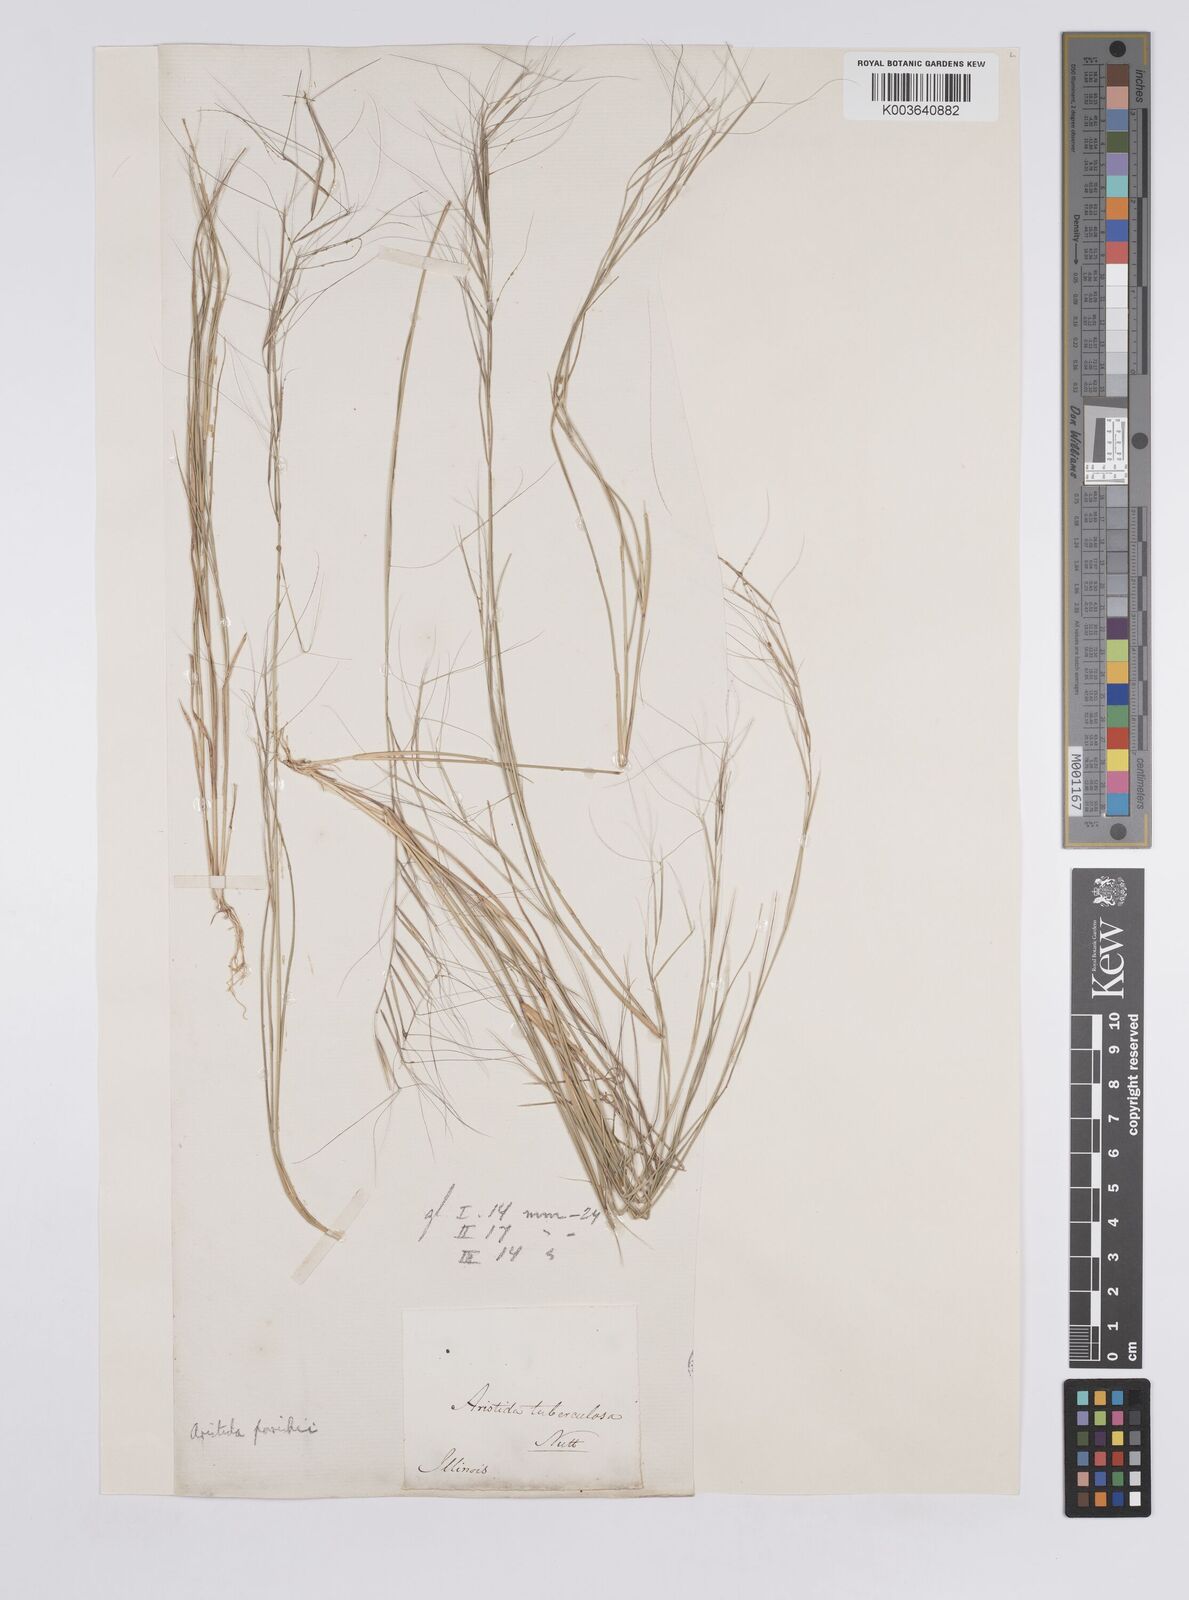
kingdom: Plantae
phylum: Tracheophyta
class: Liliopsida
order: Poales
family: Poaceae
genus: Aristida
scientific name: Aristida purpurea
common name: Purple threeawn
